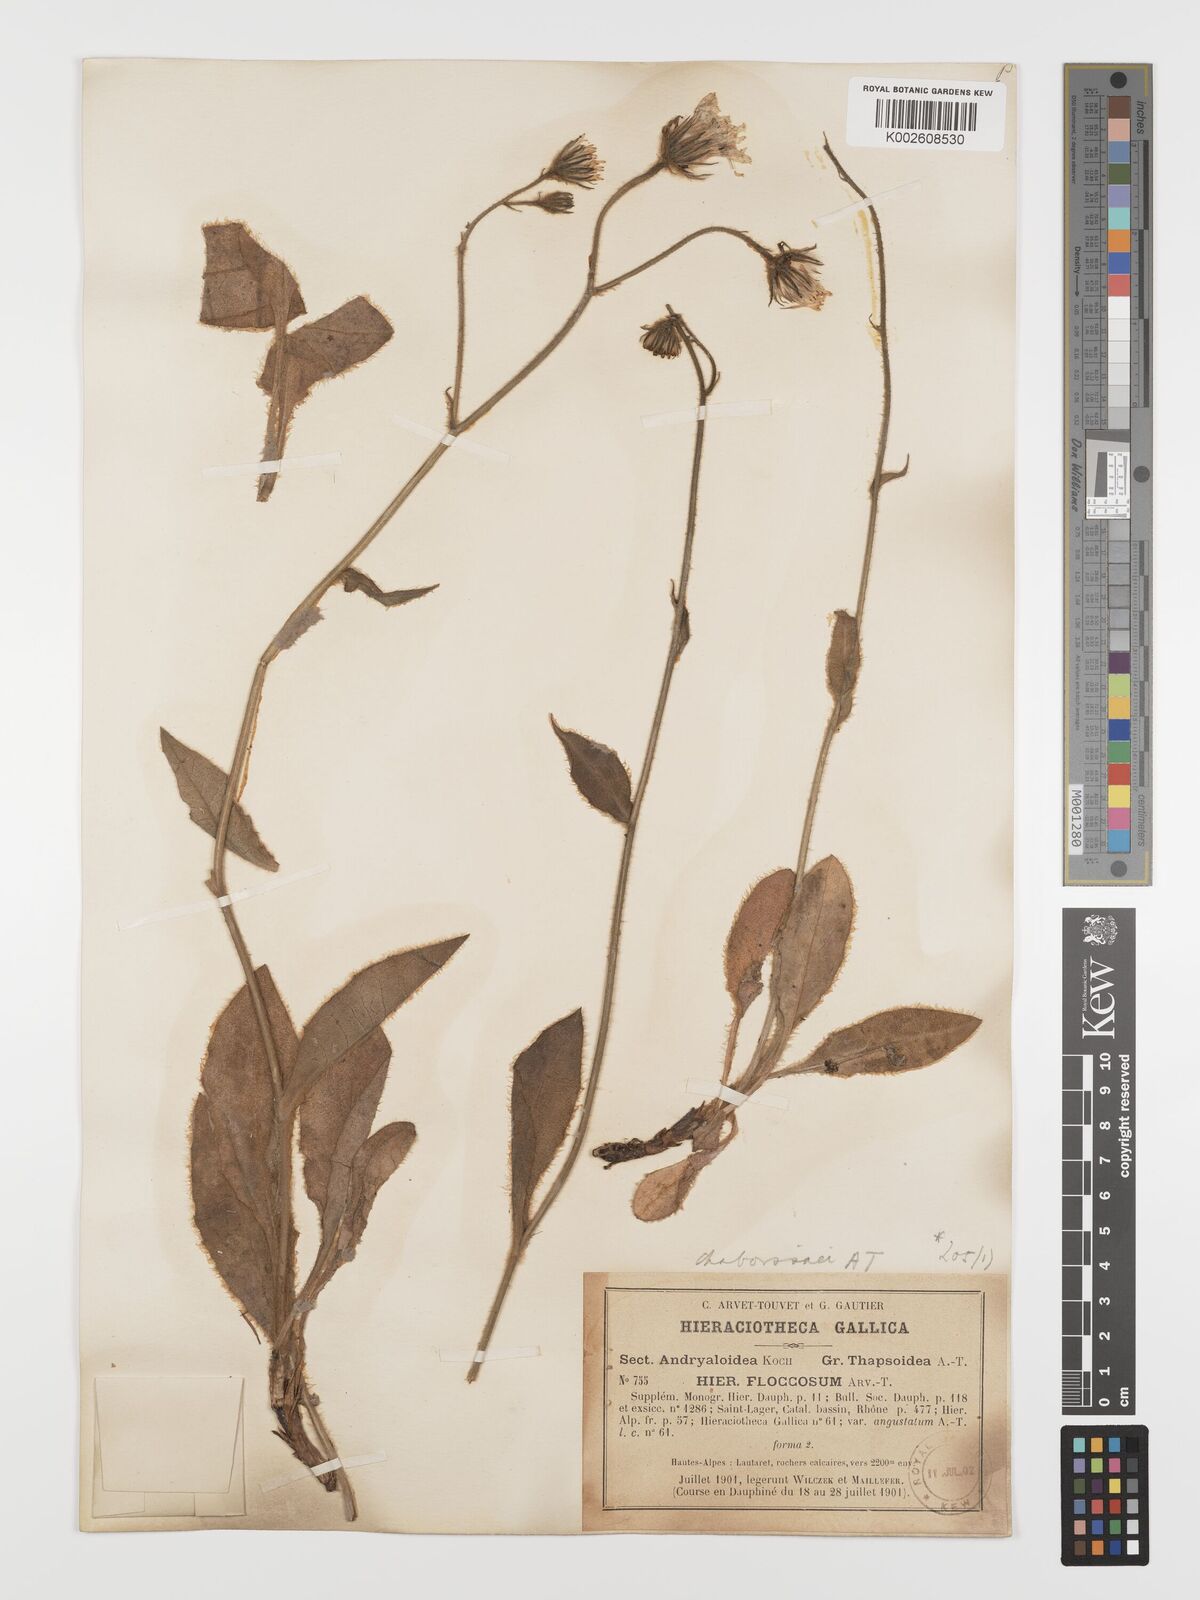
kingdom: Plantae
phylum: Tracheophyta
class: Magnoliopsida
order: Asterales
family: Asteraceae
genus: Hieracium
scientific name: Hieracium chaboissaei
